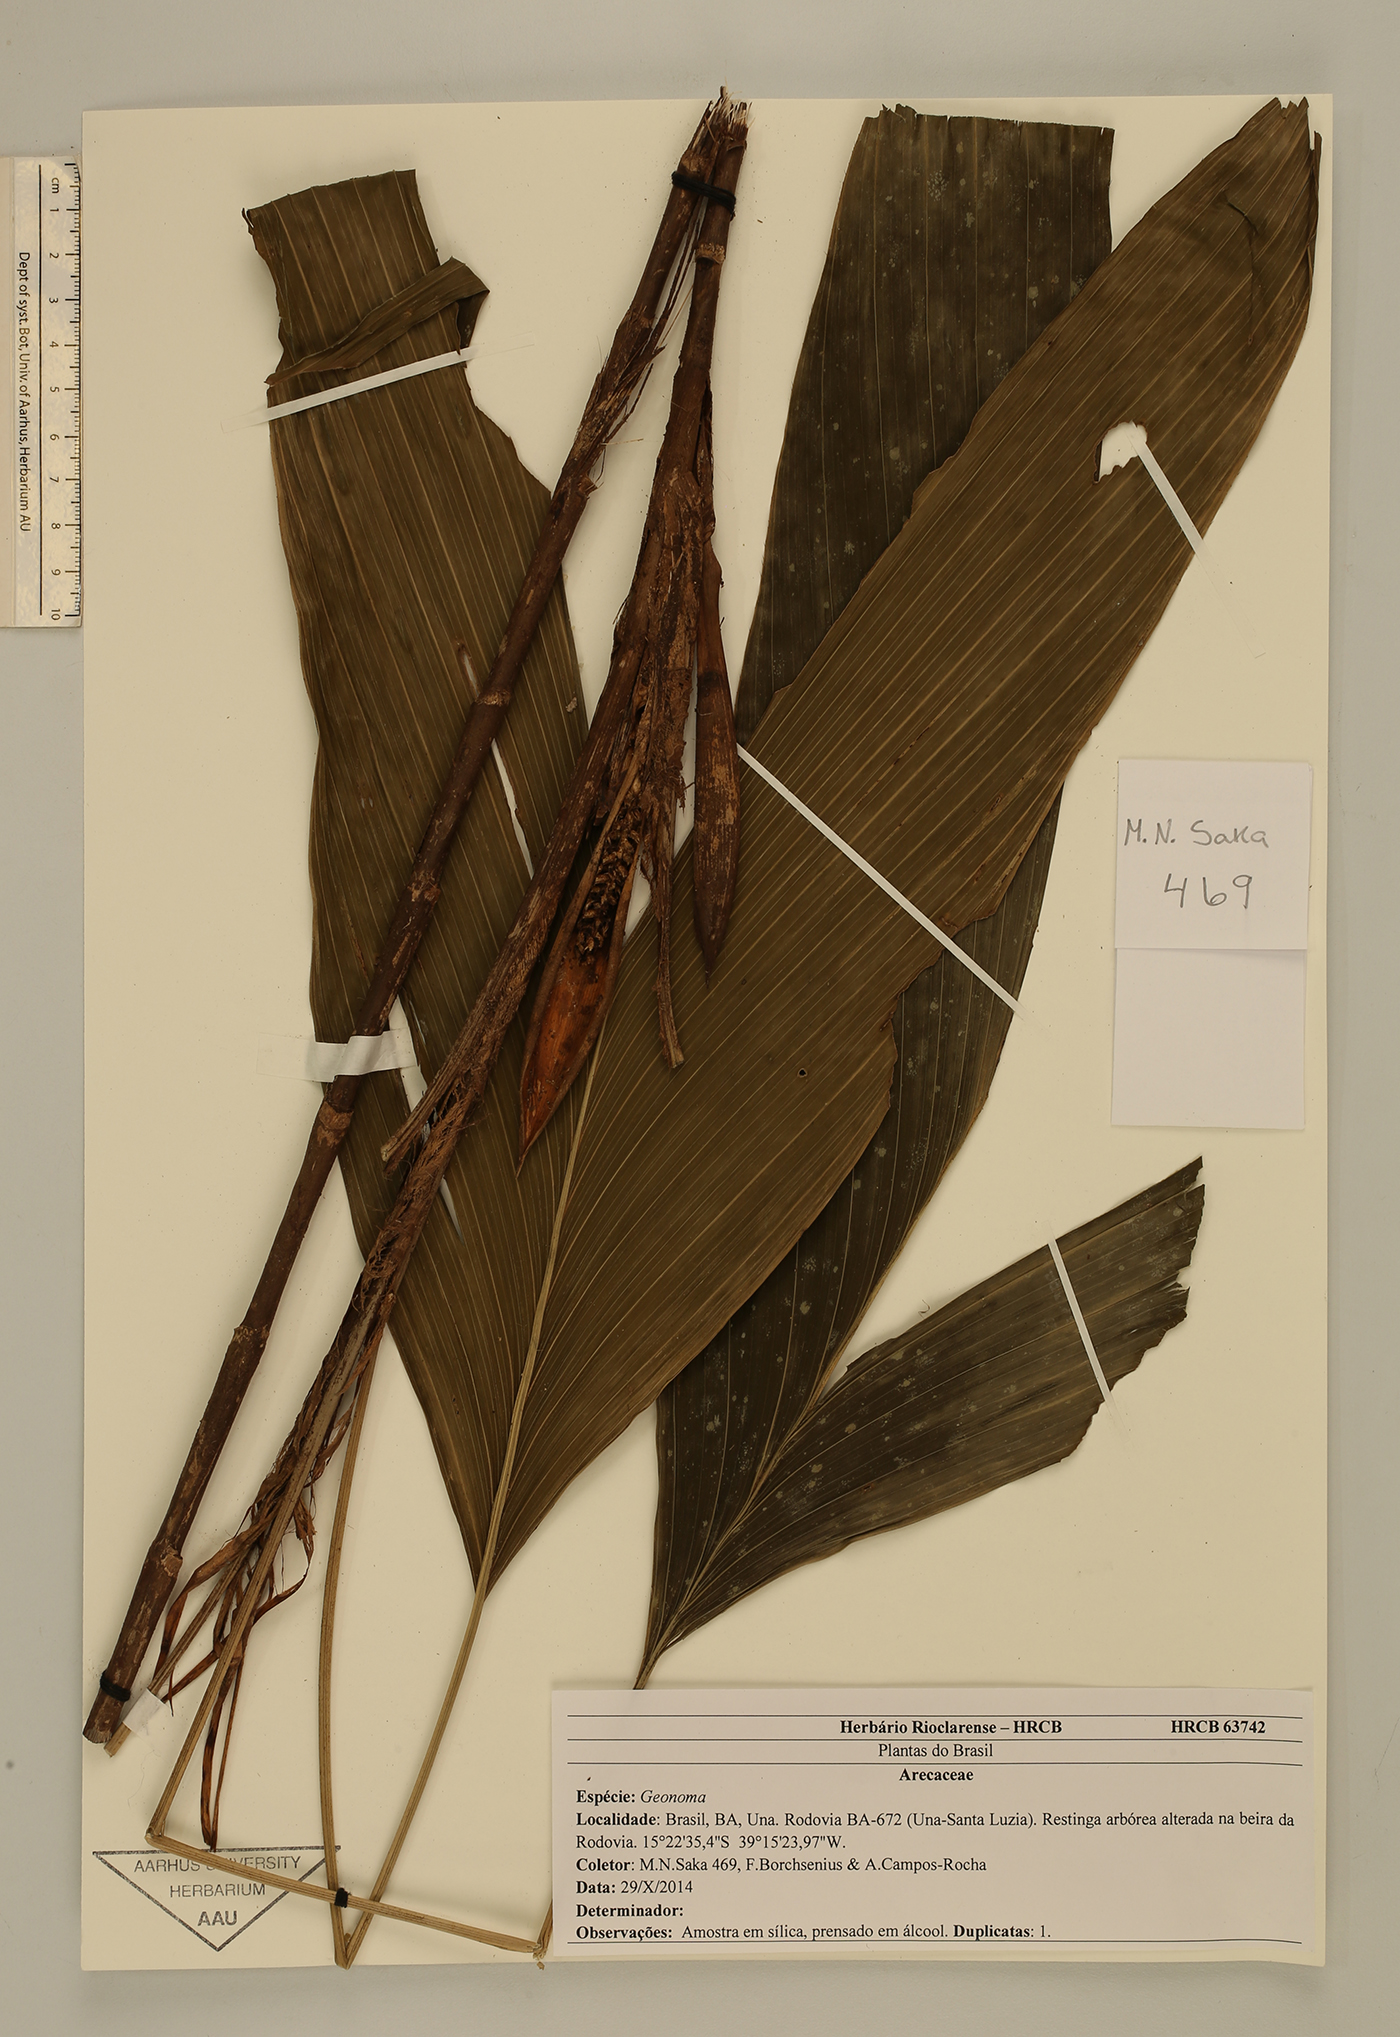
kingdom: Plantae
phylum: Tracheophyta
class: Liliopsida
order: Arecales
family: Arecaceae
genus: Geonoma
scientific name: Geonoma
